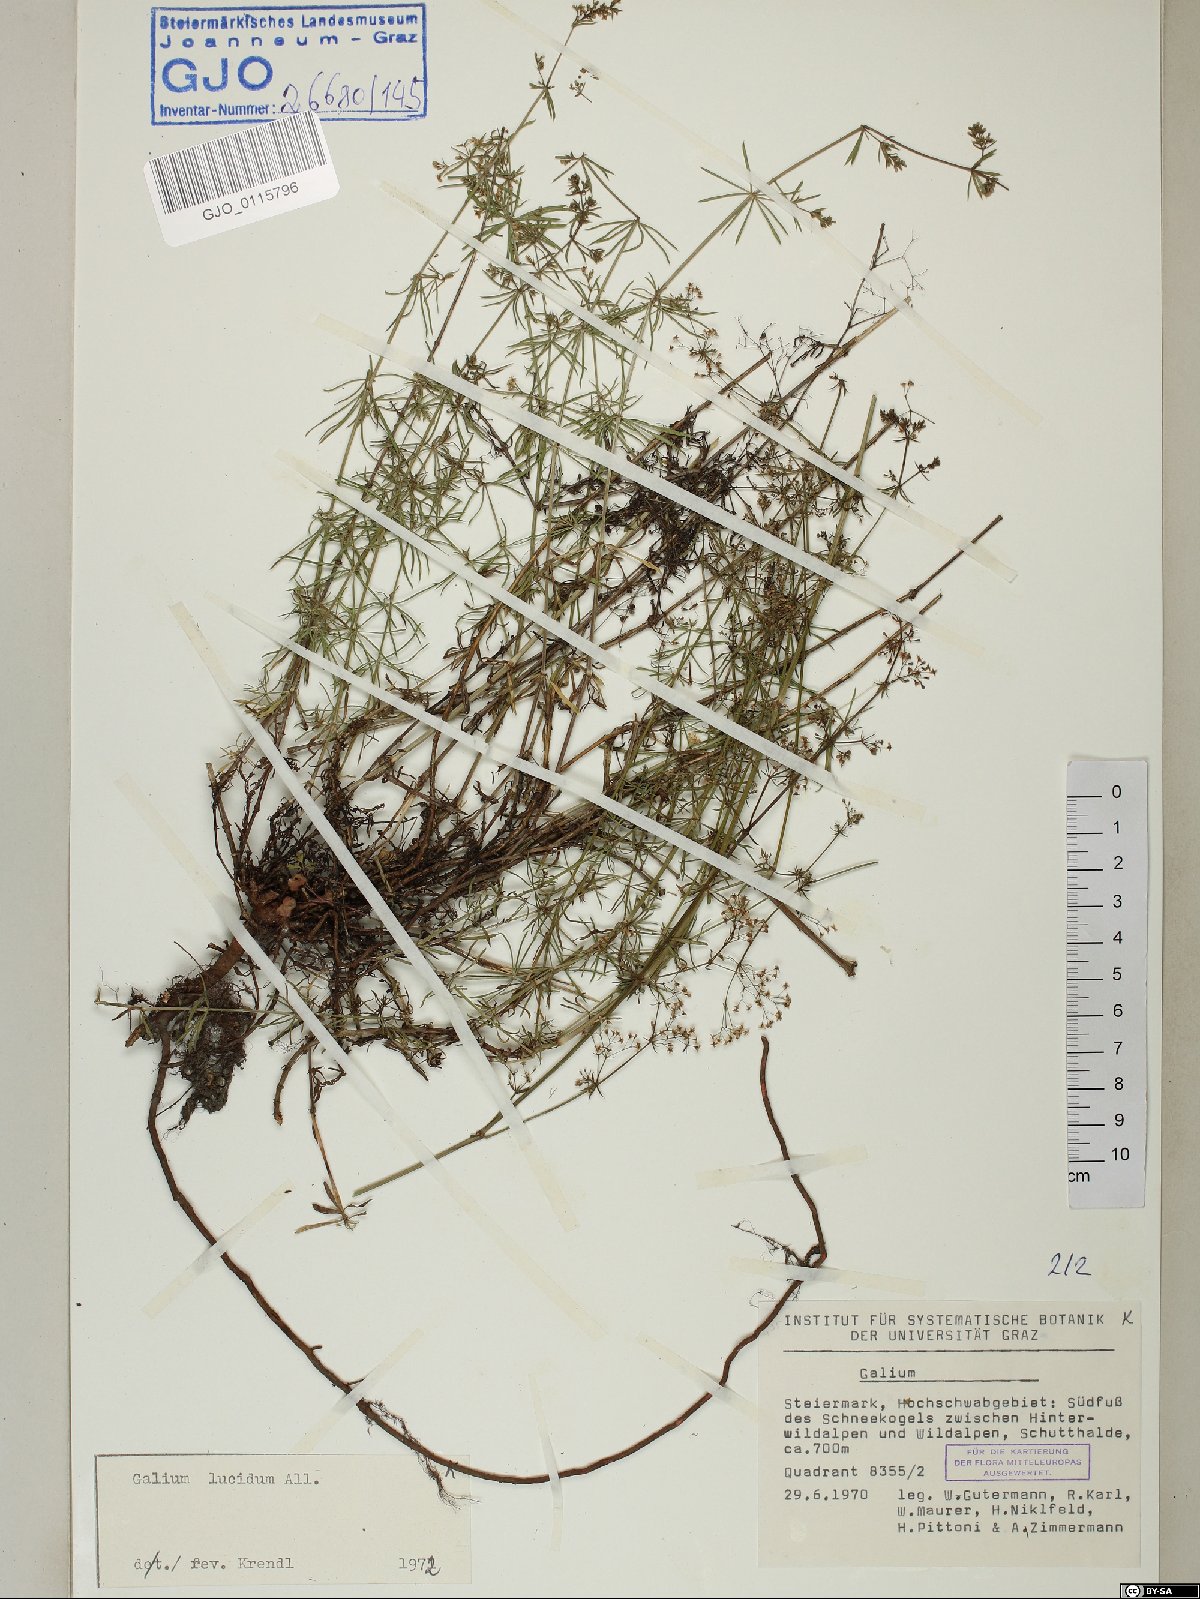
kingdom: Plantae
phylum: Tracheophyta
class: Magnoliopsida
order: Gentianales
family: Rubiaceae
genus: Galium
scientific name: Galium lucidum
